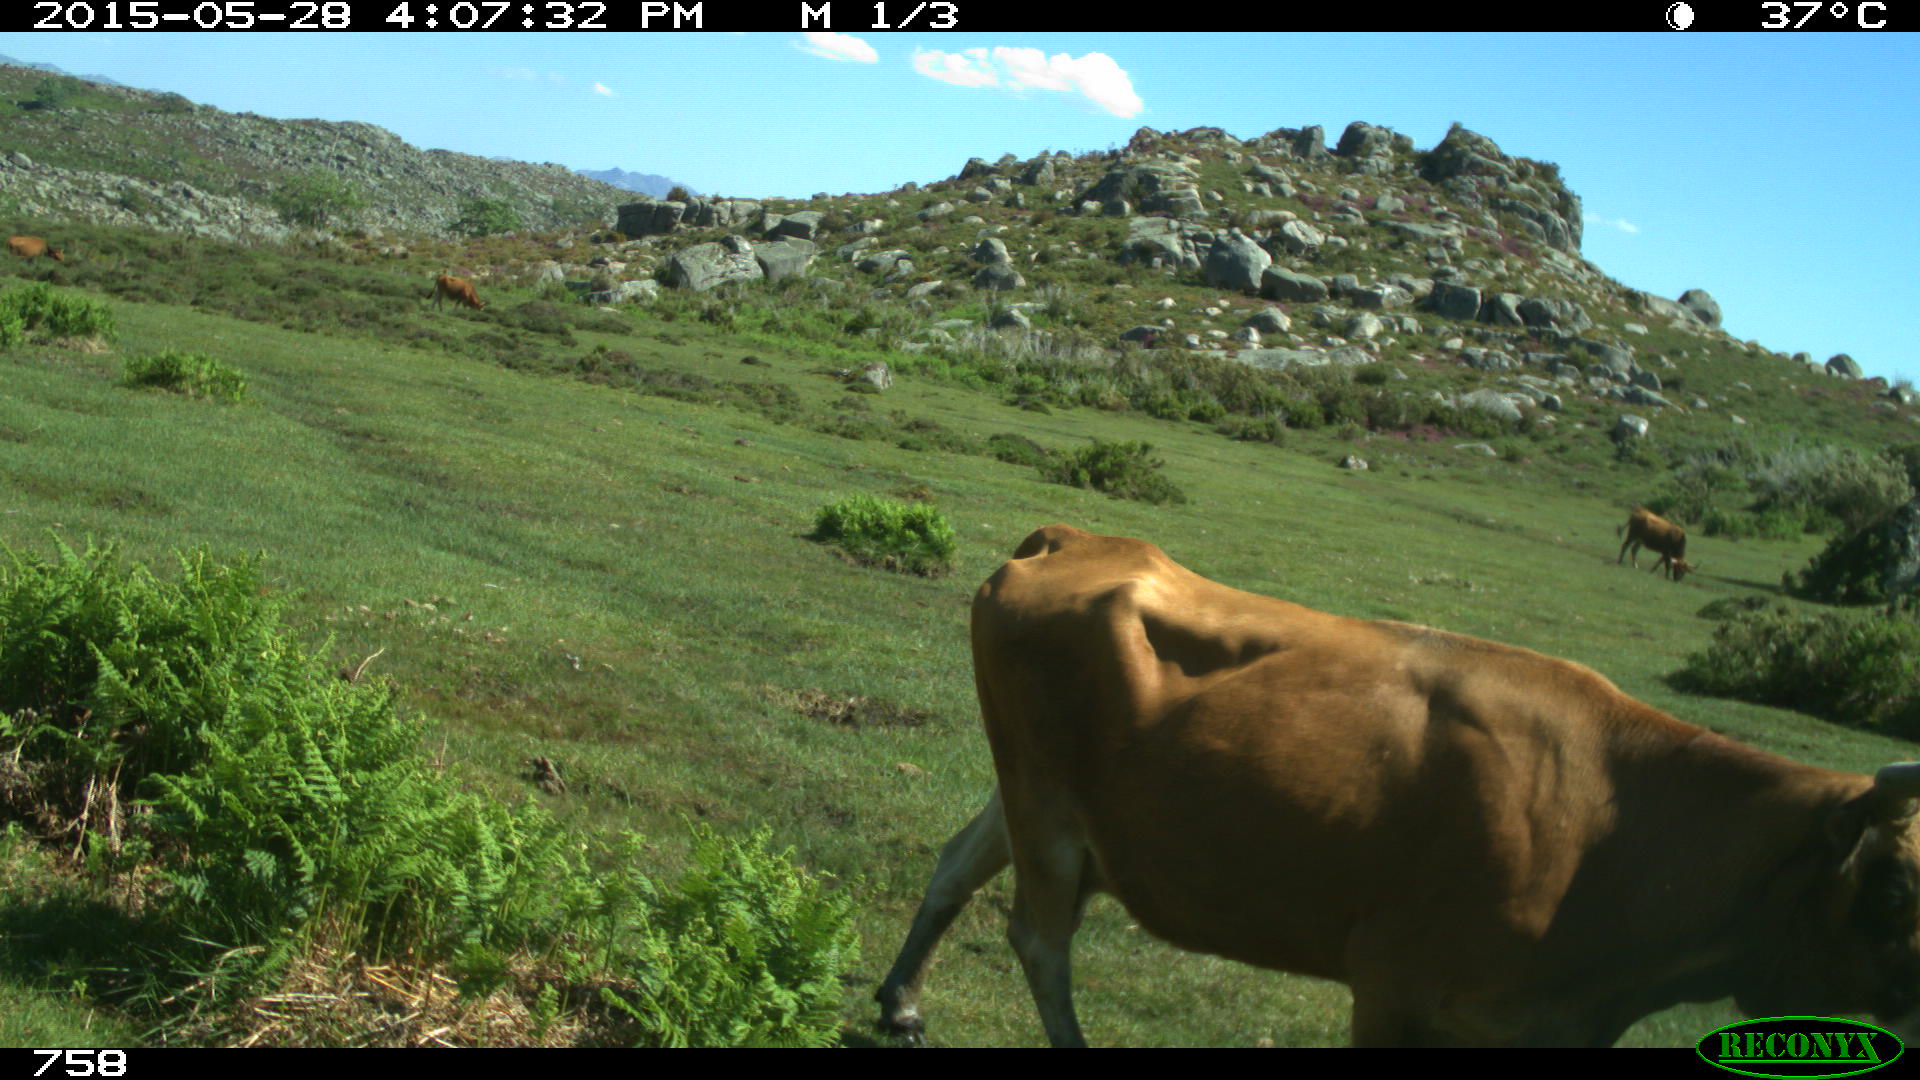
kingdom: Animalia
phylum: Chordata
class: Mammalia
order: Artiodactyla
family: Bovidae
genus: Bos
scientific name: Bos taurus
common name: Domesticated cattle
